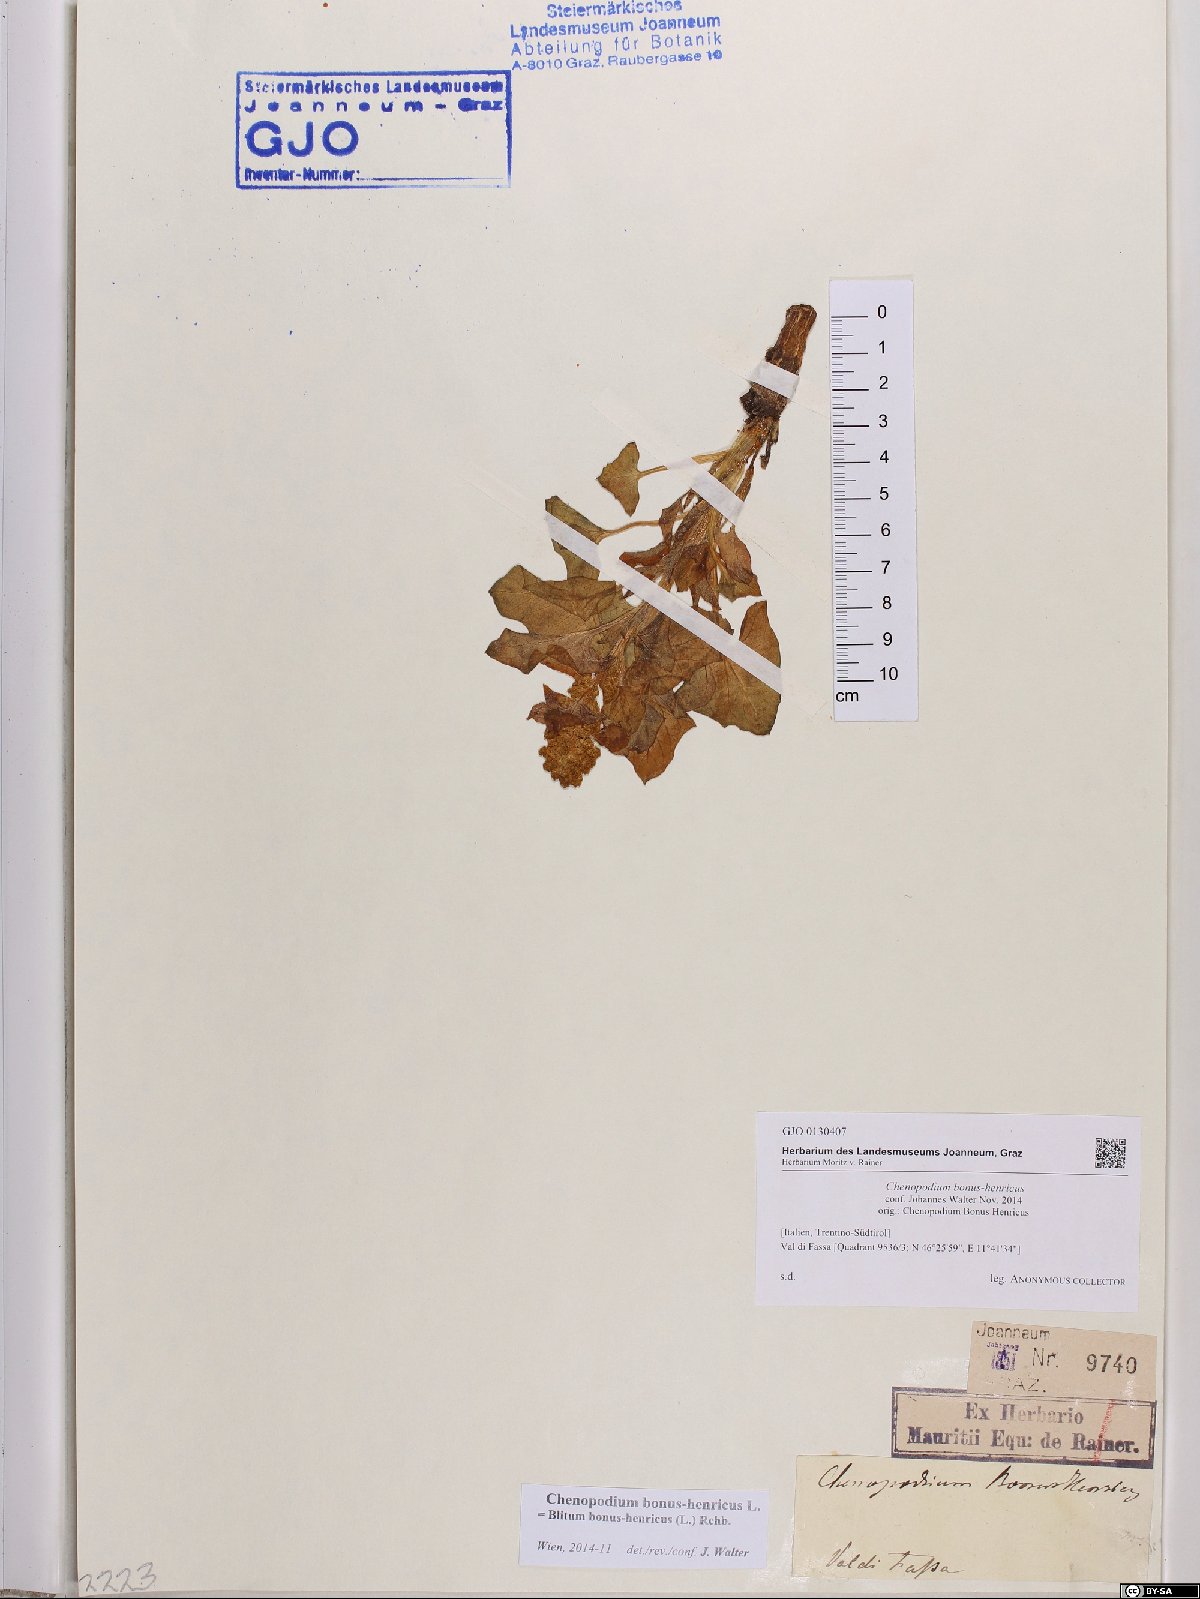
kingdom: Plantae
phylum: Tracheophyta
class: Magnoliopsida
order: Caryophyllales
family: Amaranthaceae
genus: Blitum
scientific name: Blitum bonus-henricus
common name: Good king henry
